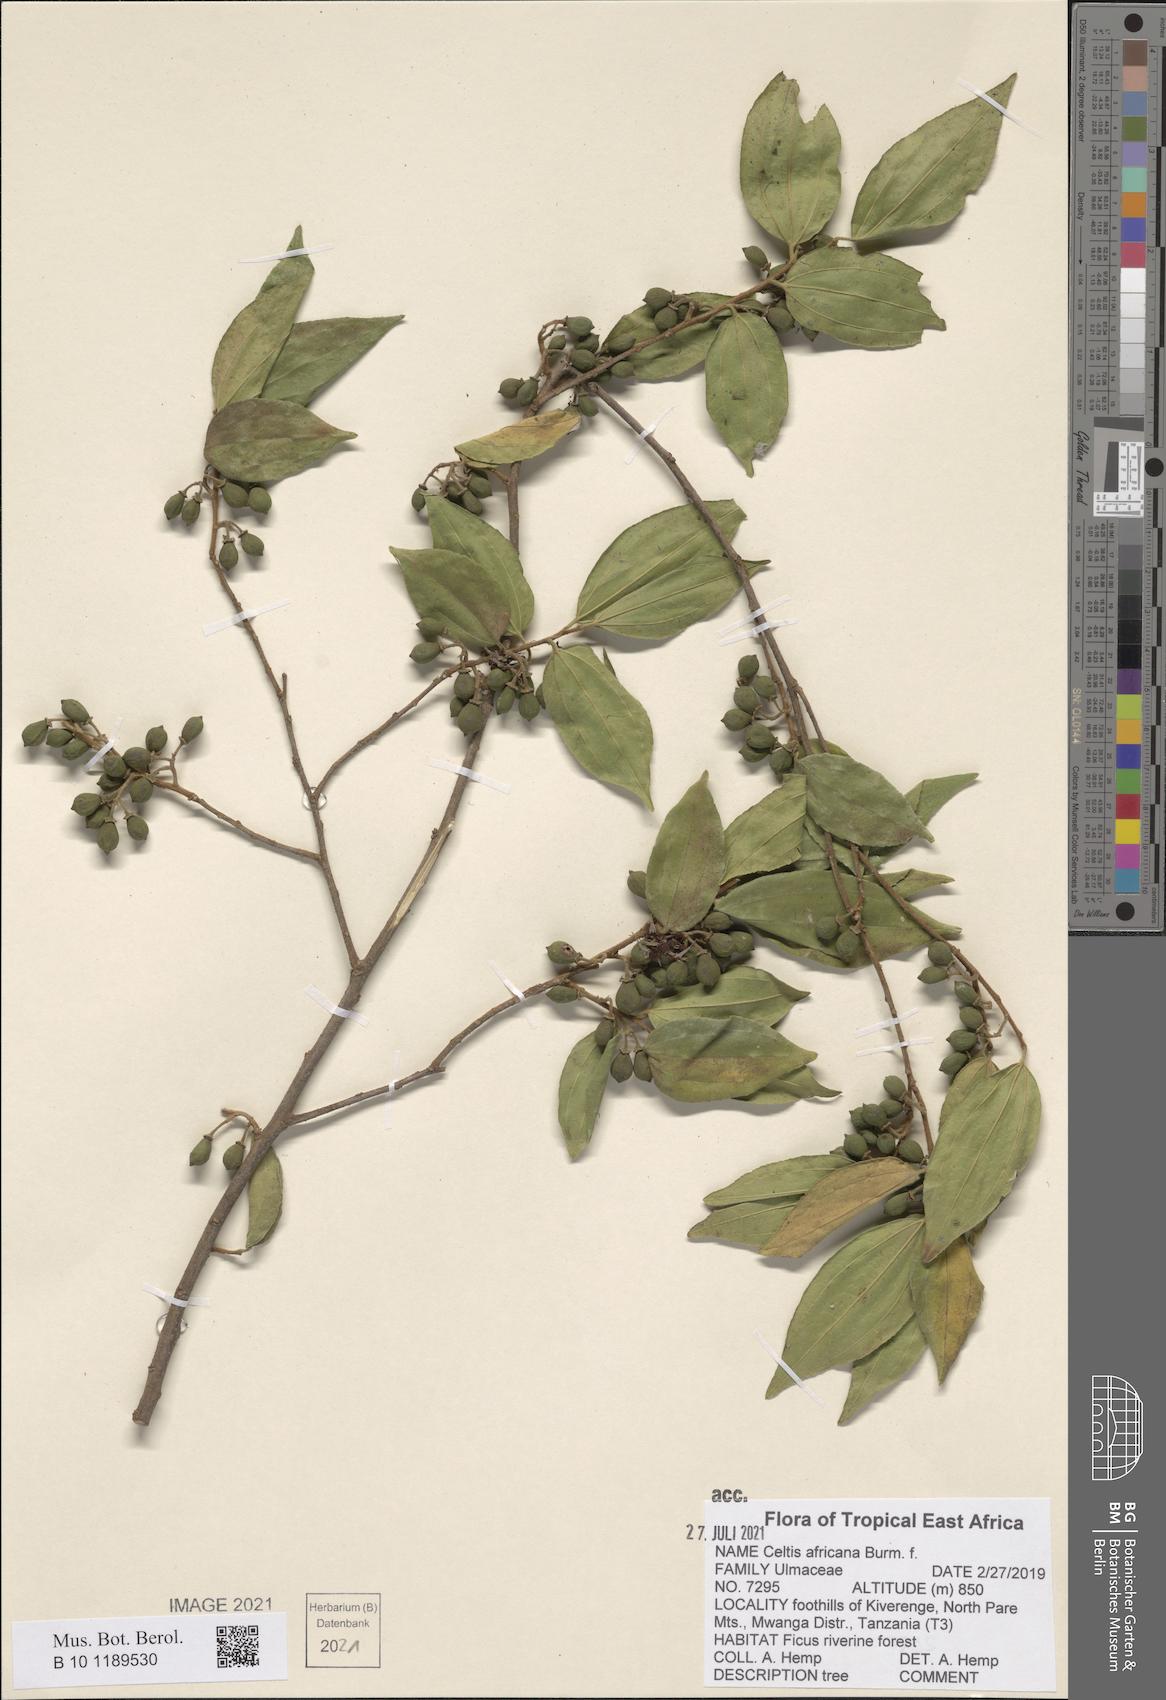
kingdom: Plantae
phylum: Tracheophyta
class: Magnoliopsida
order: Rosales
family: Cannabaceae
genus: Celtis
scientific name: Celtis africana
